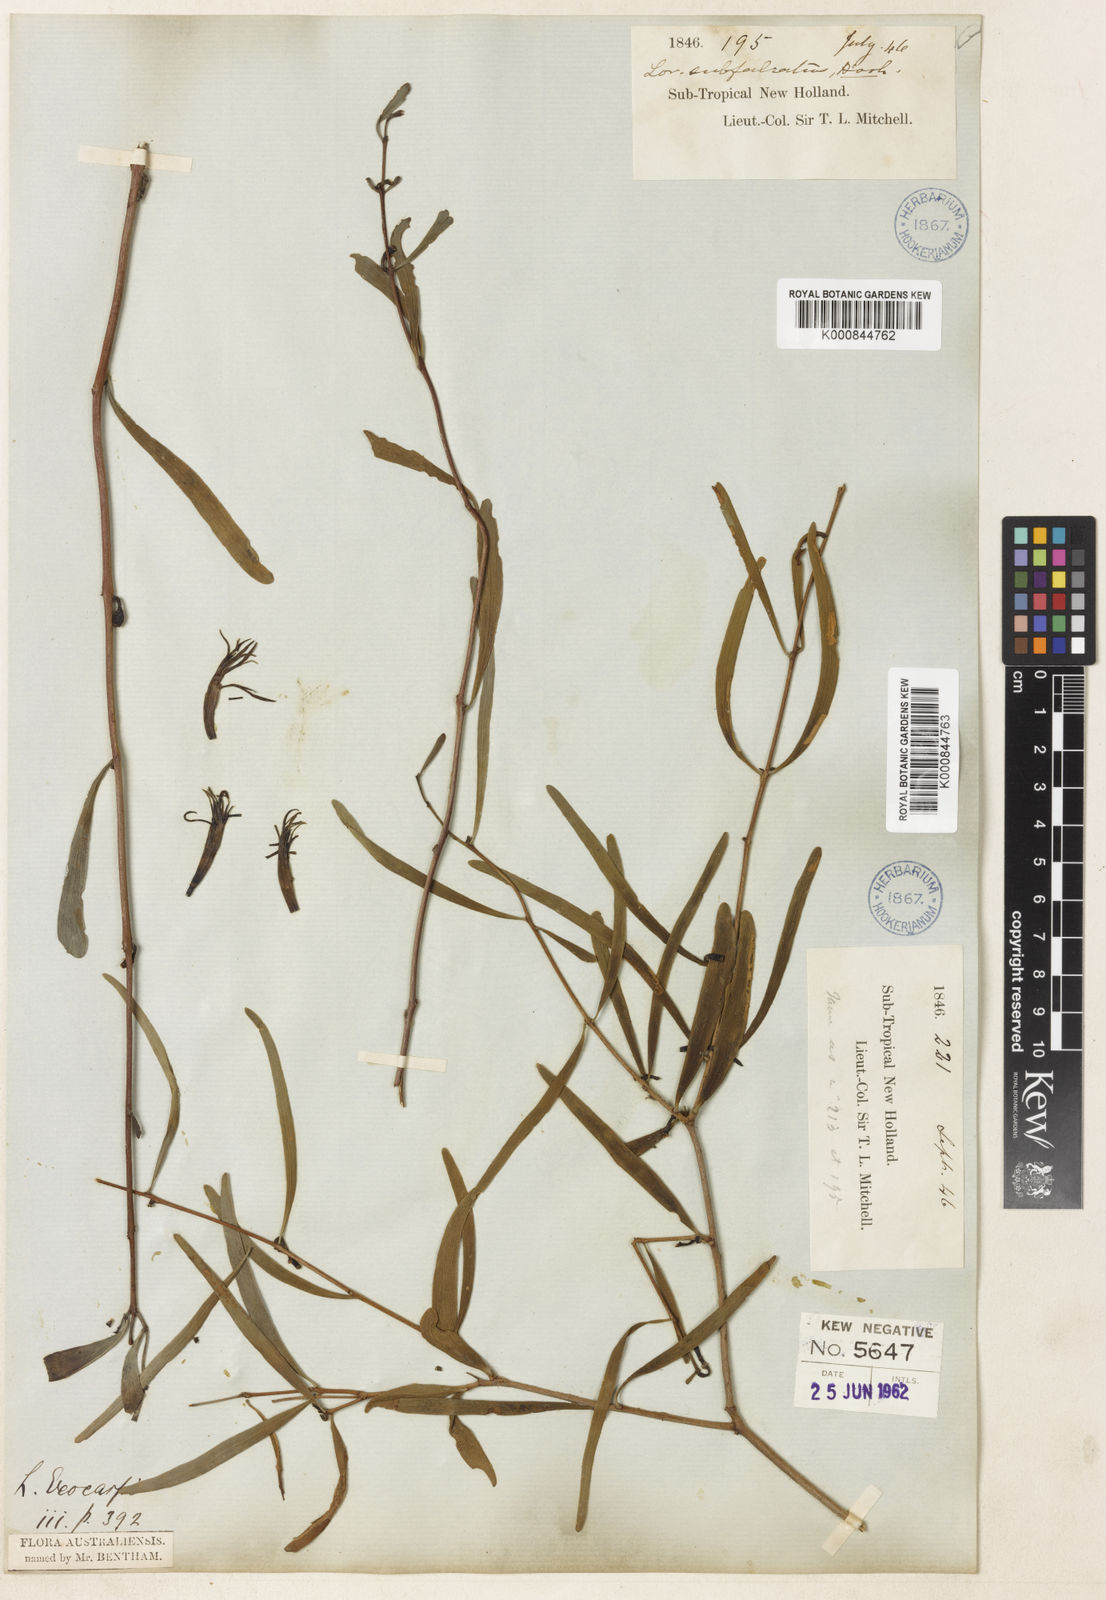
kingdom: Plantae
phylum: Tracheophyta
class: Magnoliopsida
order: Santalales
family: Loranthaceae
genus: Lysiana
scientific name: Lysiana exocarpi
